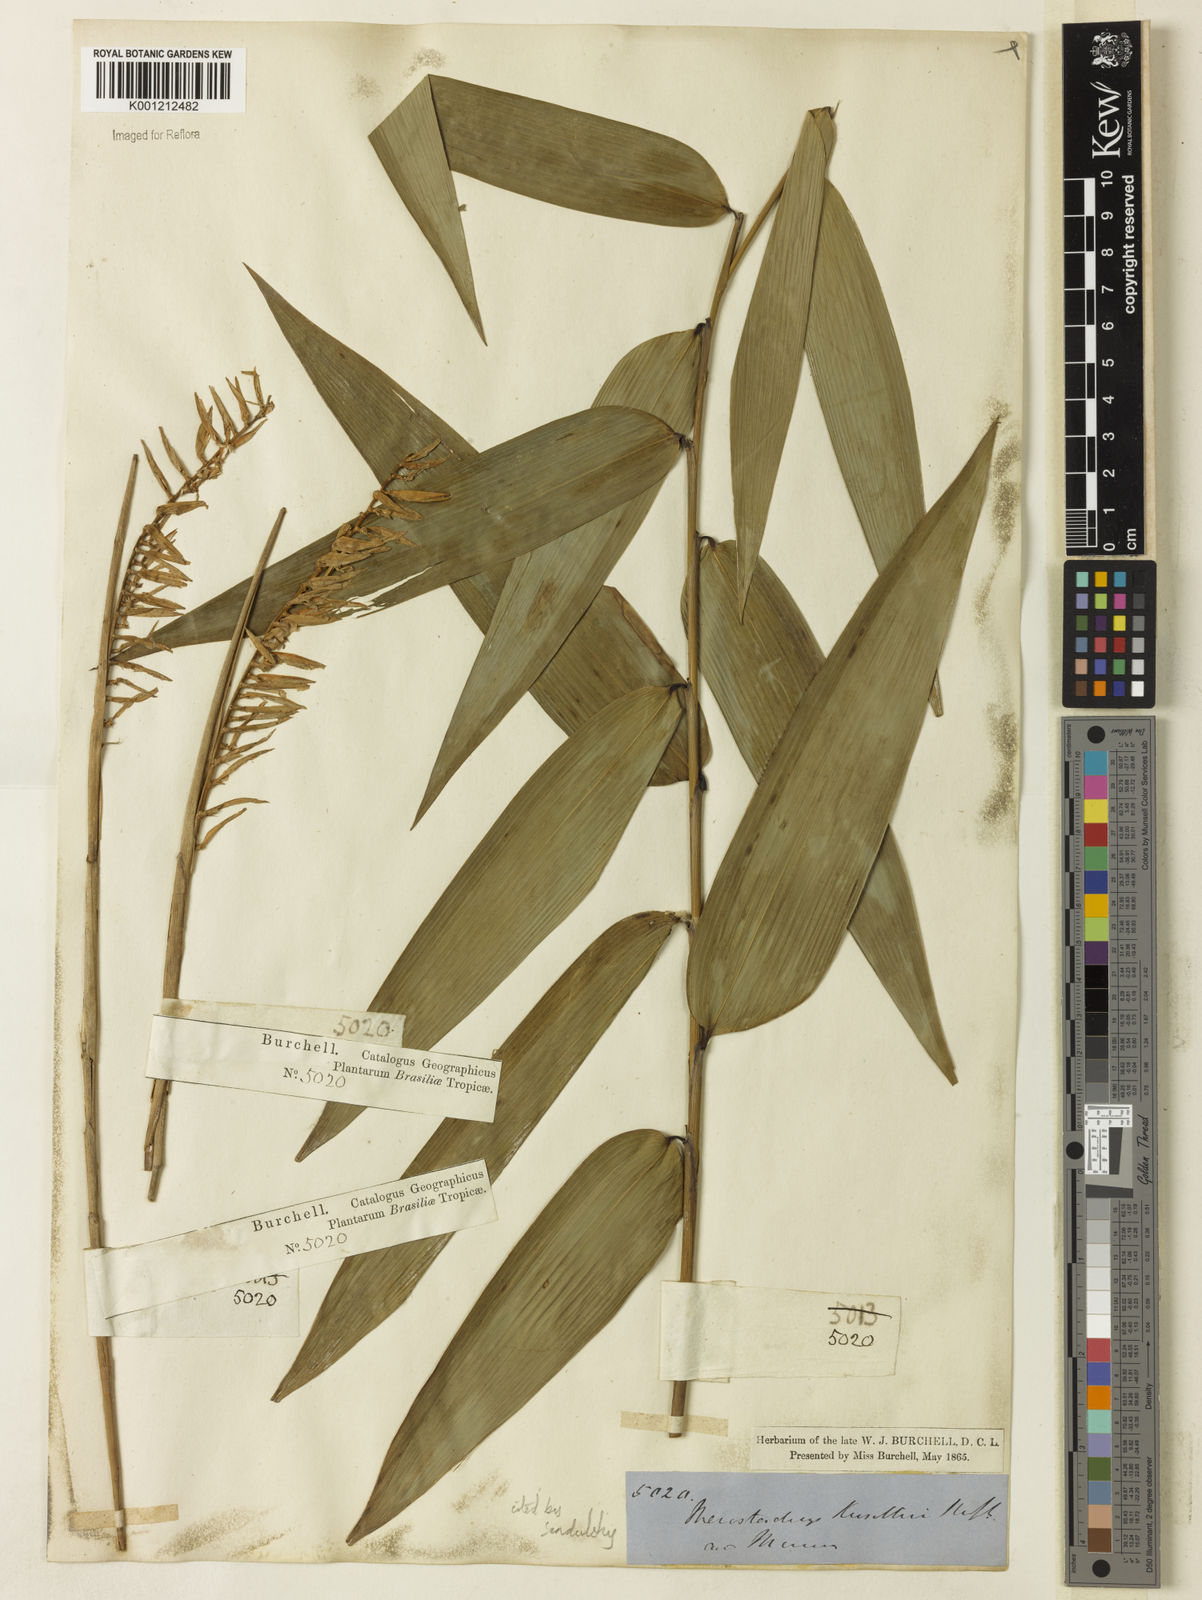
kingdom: Plantae
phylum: Tracheophyta
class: Liliopsida
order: Poales
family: Poaceae
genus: Merostachys
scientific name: Merostachys kunthii
